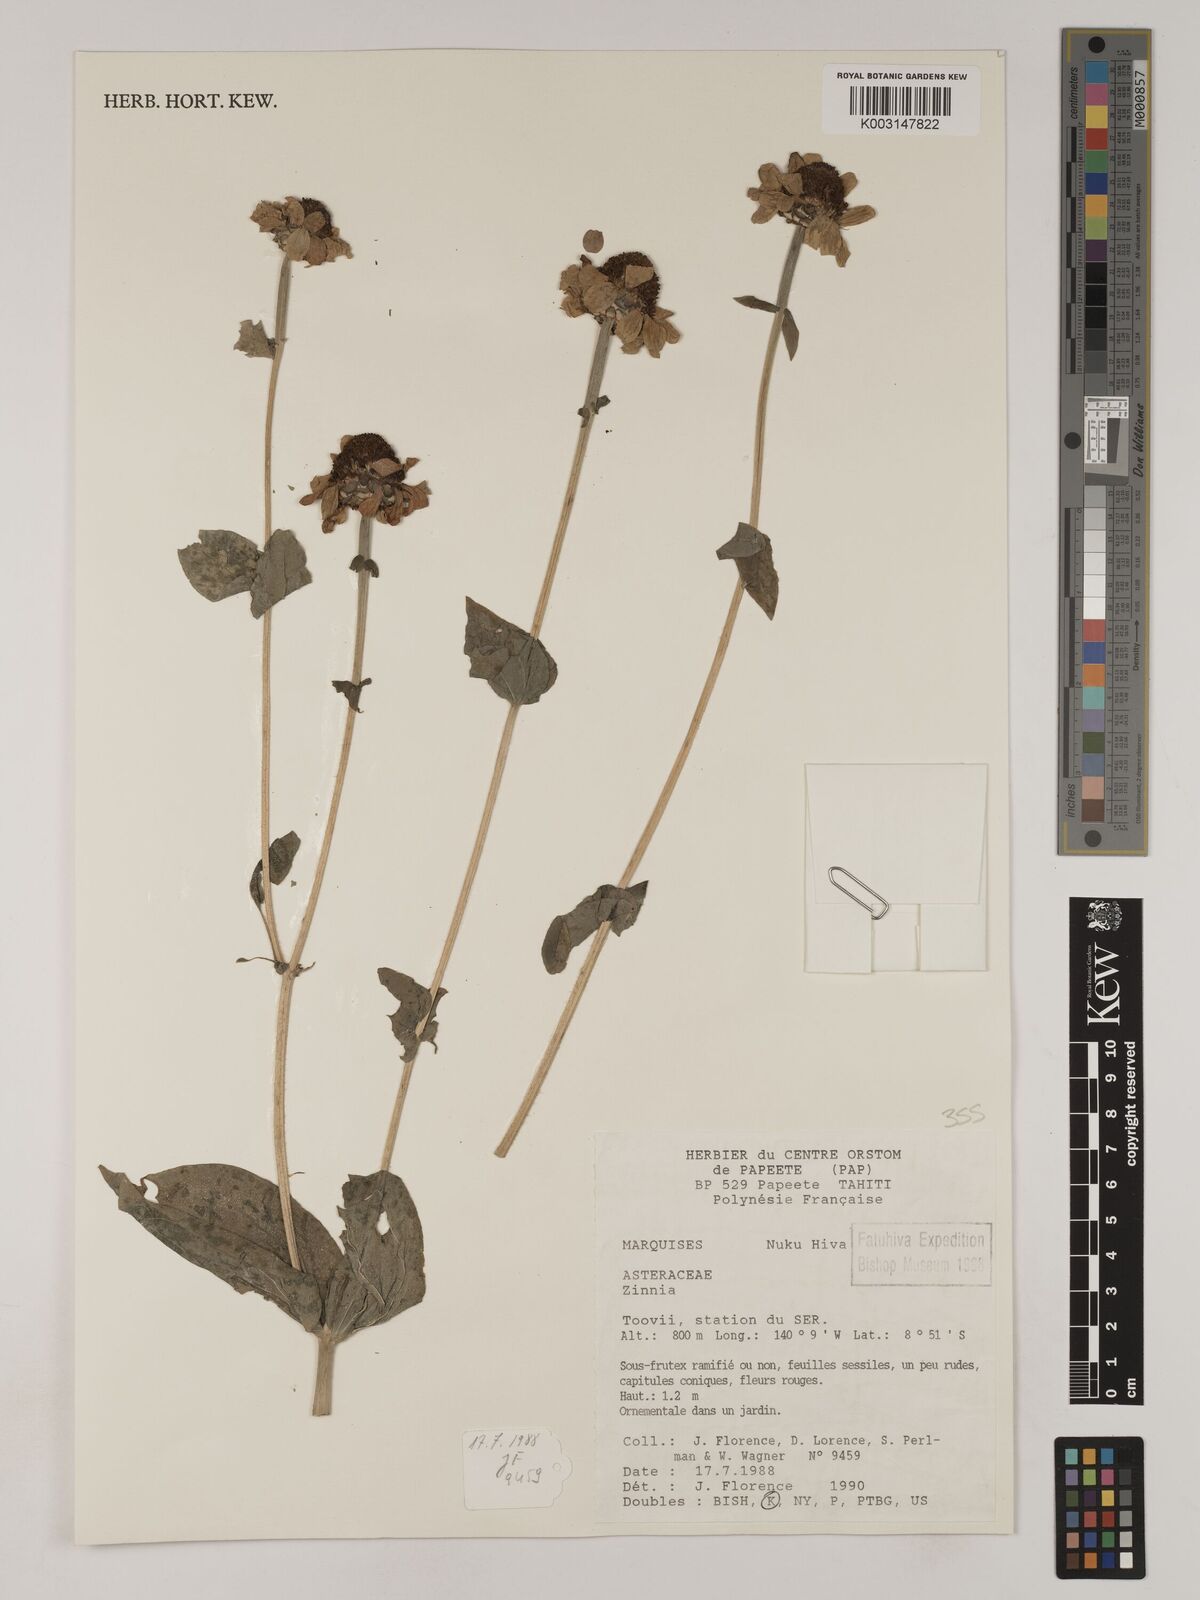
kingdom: Plantae
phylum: Tracheophyta
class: Magnoliopsida
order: Asterales
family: Asteraceae
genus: Zinnia
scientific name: Zinnia
